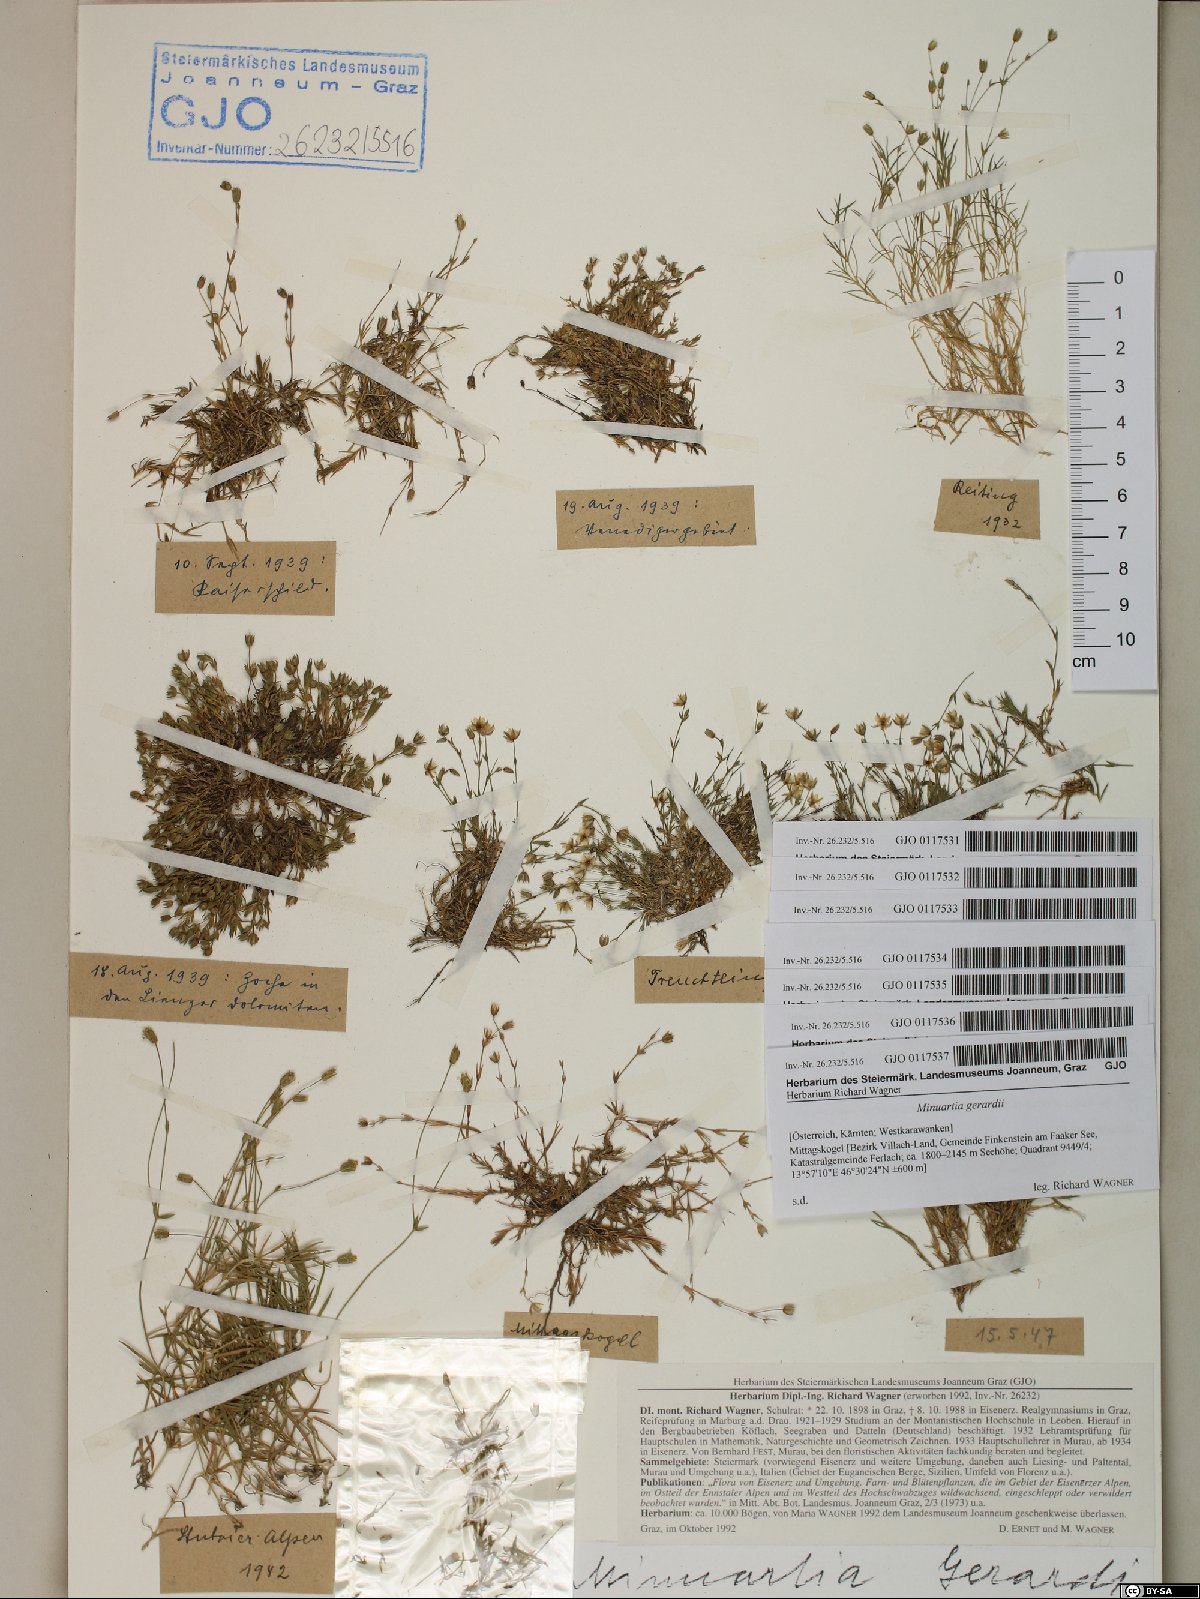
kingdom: Plantae
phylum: Tracheophyta
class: Magnoliopsida
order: Caryophyllales
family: Caryophyllaceae
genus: Sabulina
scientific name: Sabulina verna
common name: Spring sandwort
